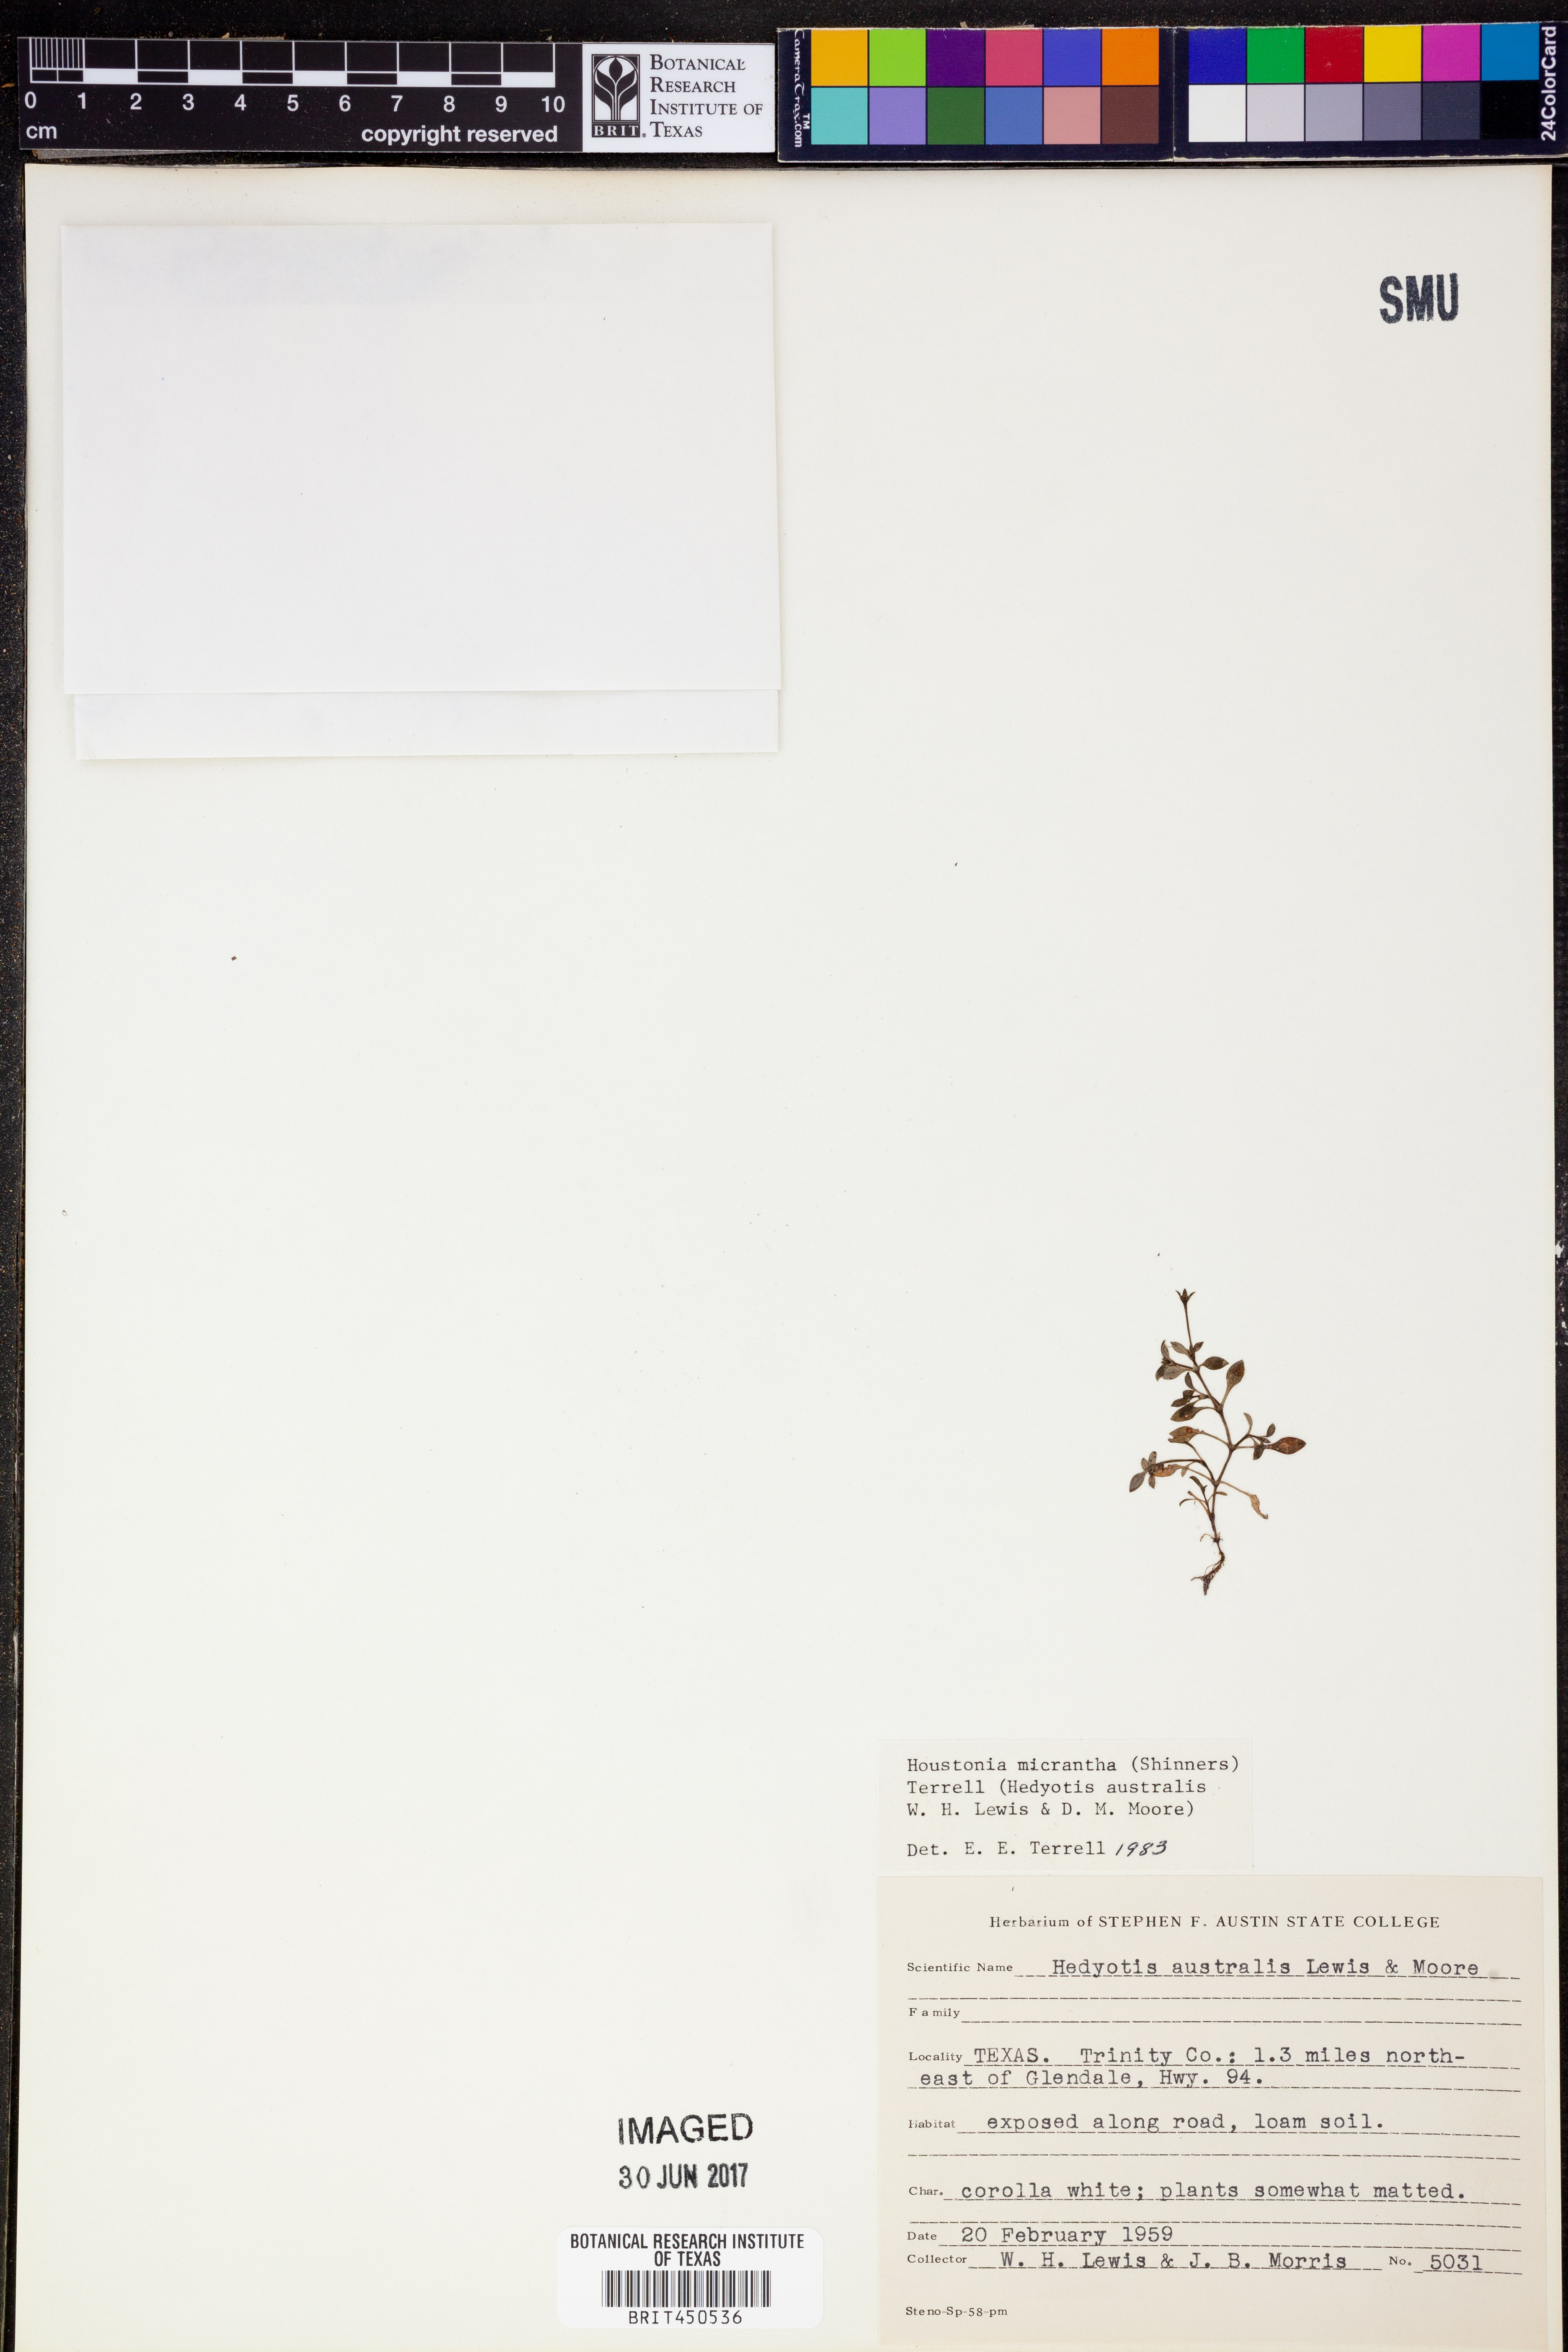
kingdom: Plantae
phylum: Tracheophyta
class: Magnoliopsida
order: Gentianales
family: Rubiaceae
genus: Oldenlandia
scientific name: Oldenlandia herbacea
